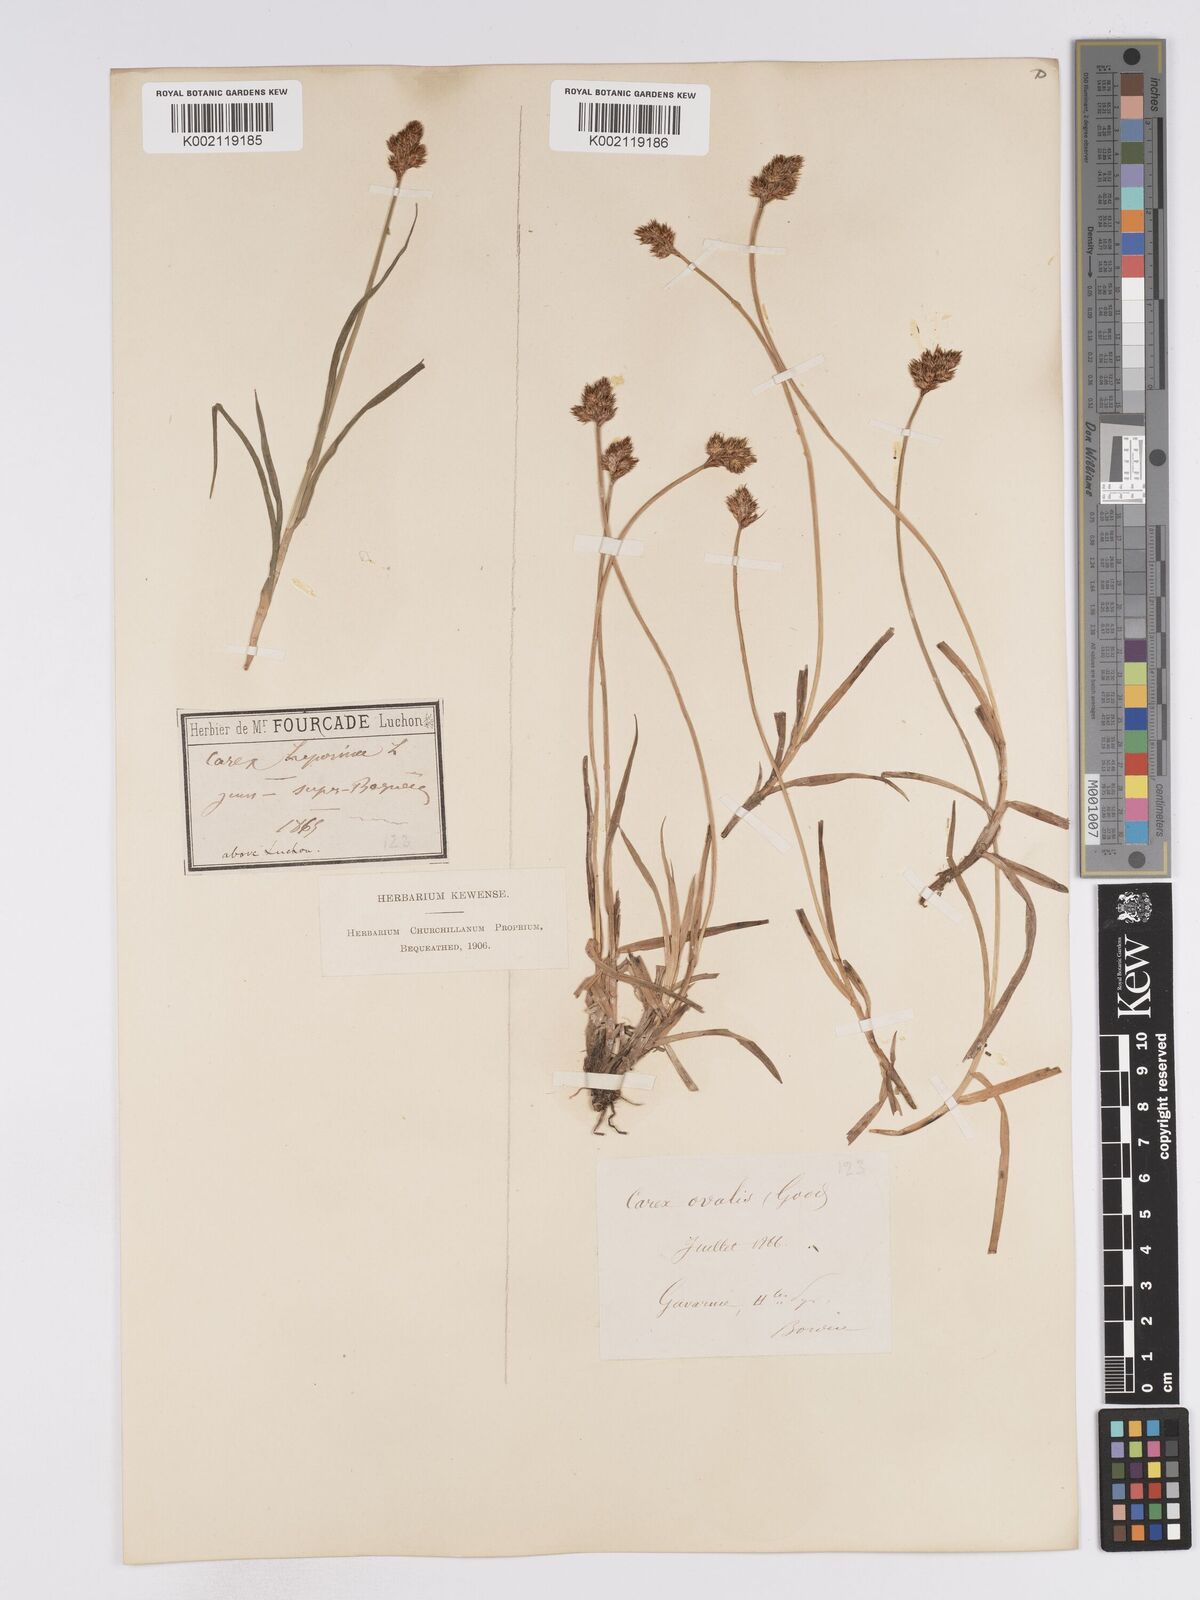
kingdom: Plantae
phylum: Tracheophyta
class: Liliopsida
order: Poales
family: Cyperaceae
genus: Carex
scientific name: Carex leporina
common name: Oval sedge
